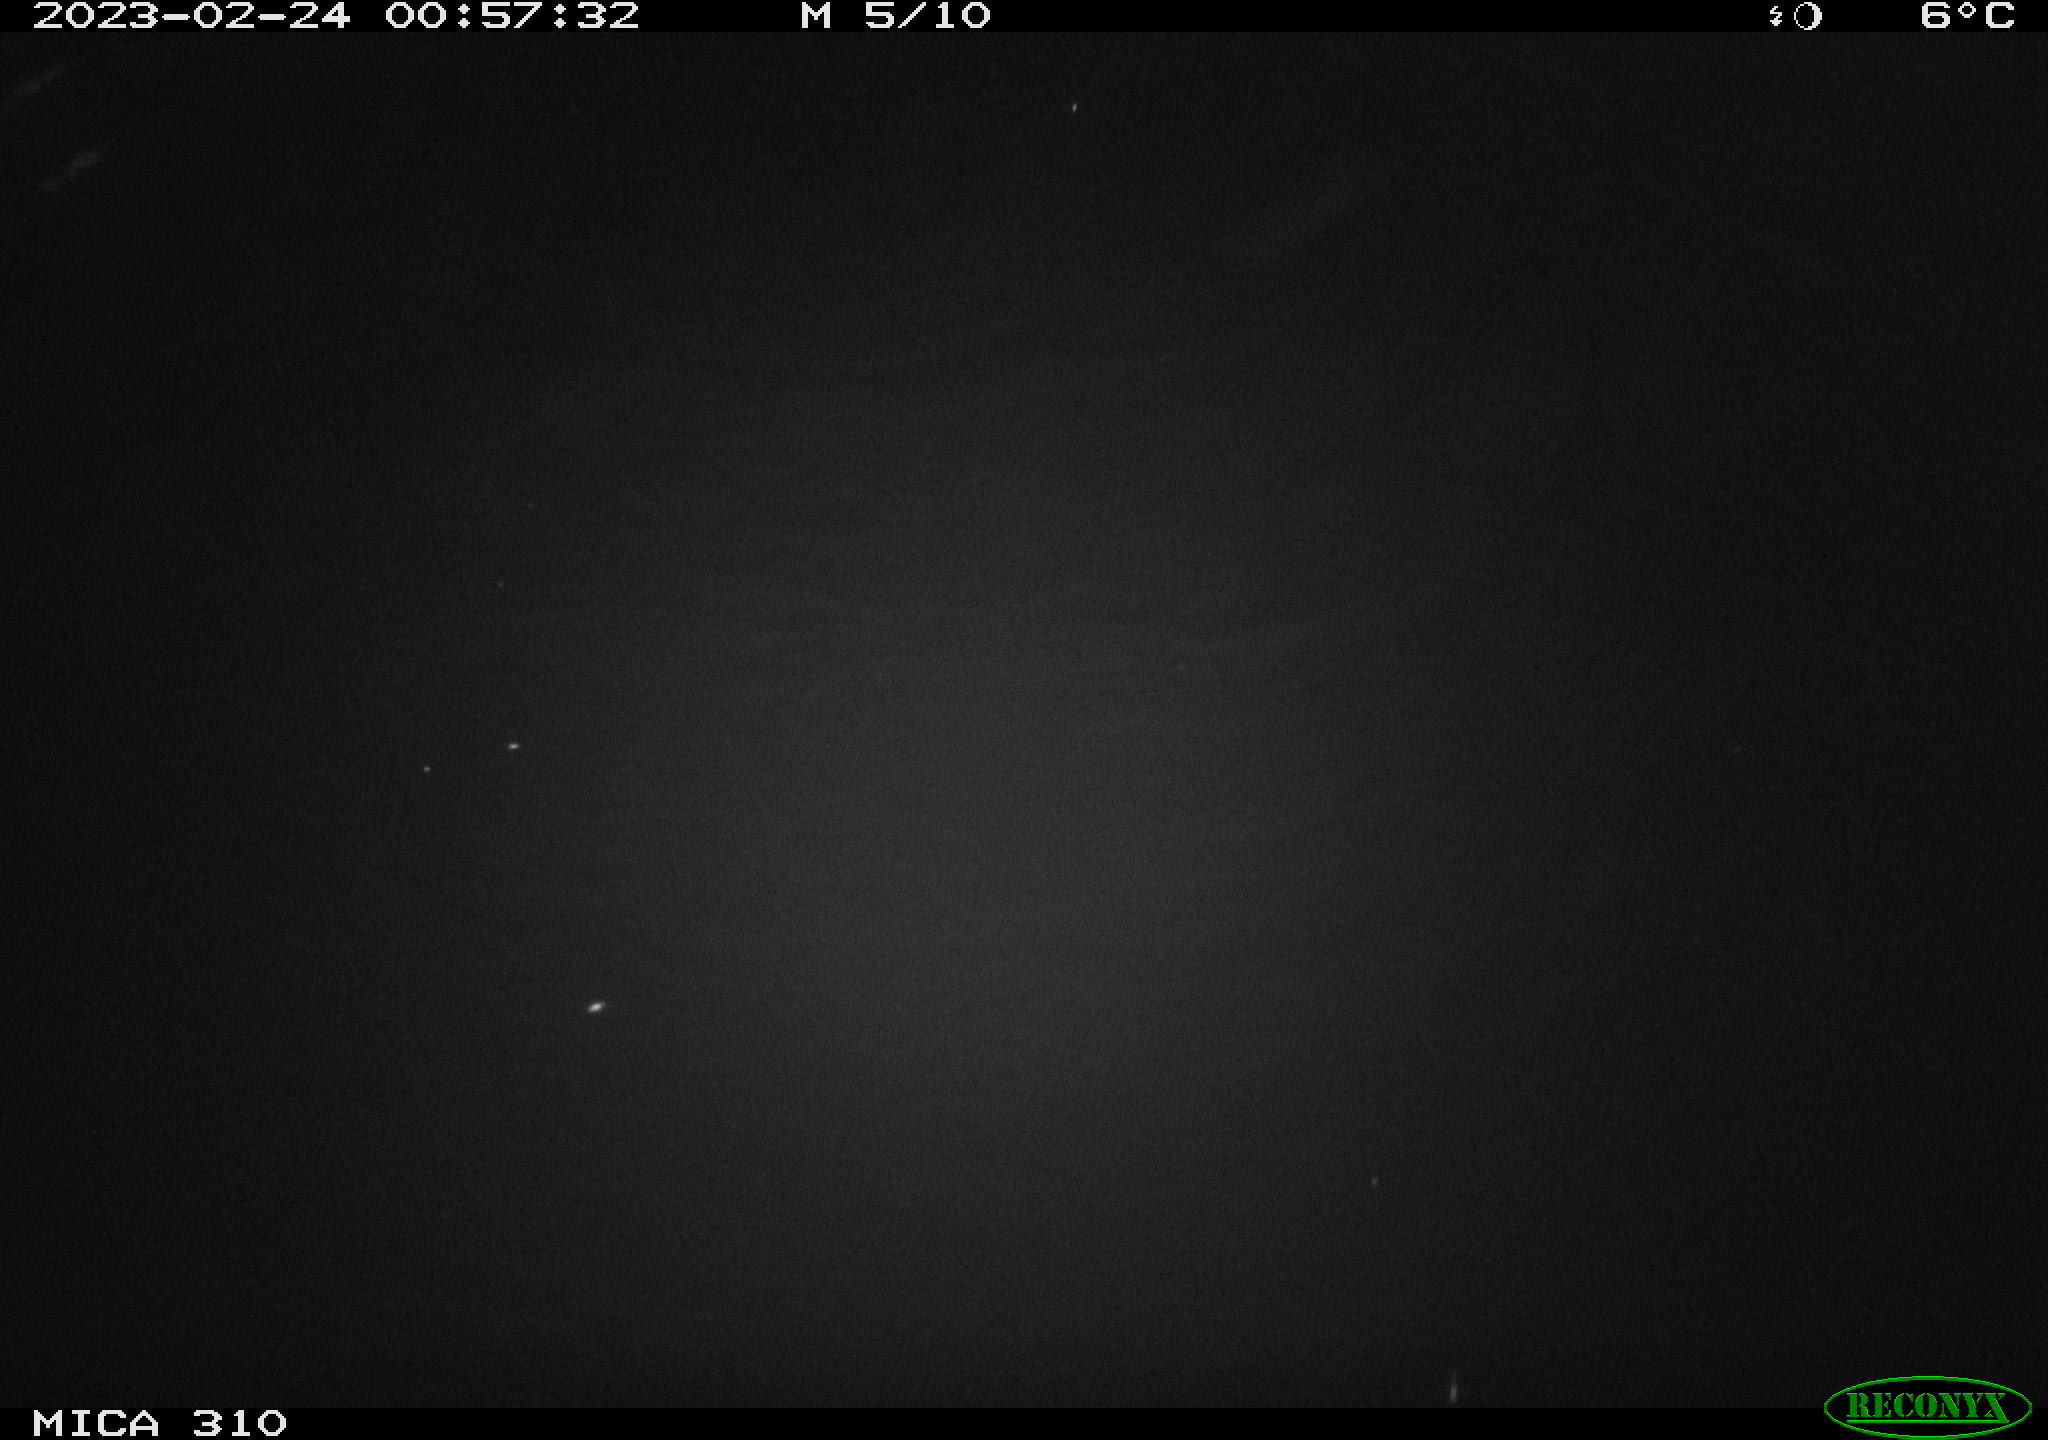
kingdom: Animalia
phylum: Chordata
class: Mammalia
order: Rodentia
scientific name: Rodentia
